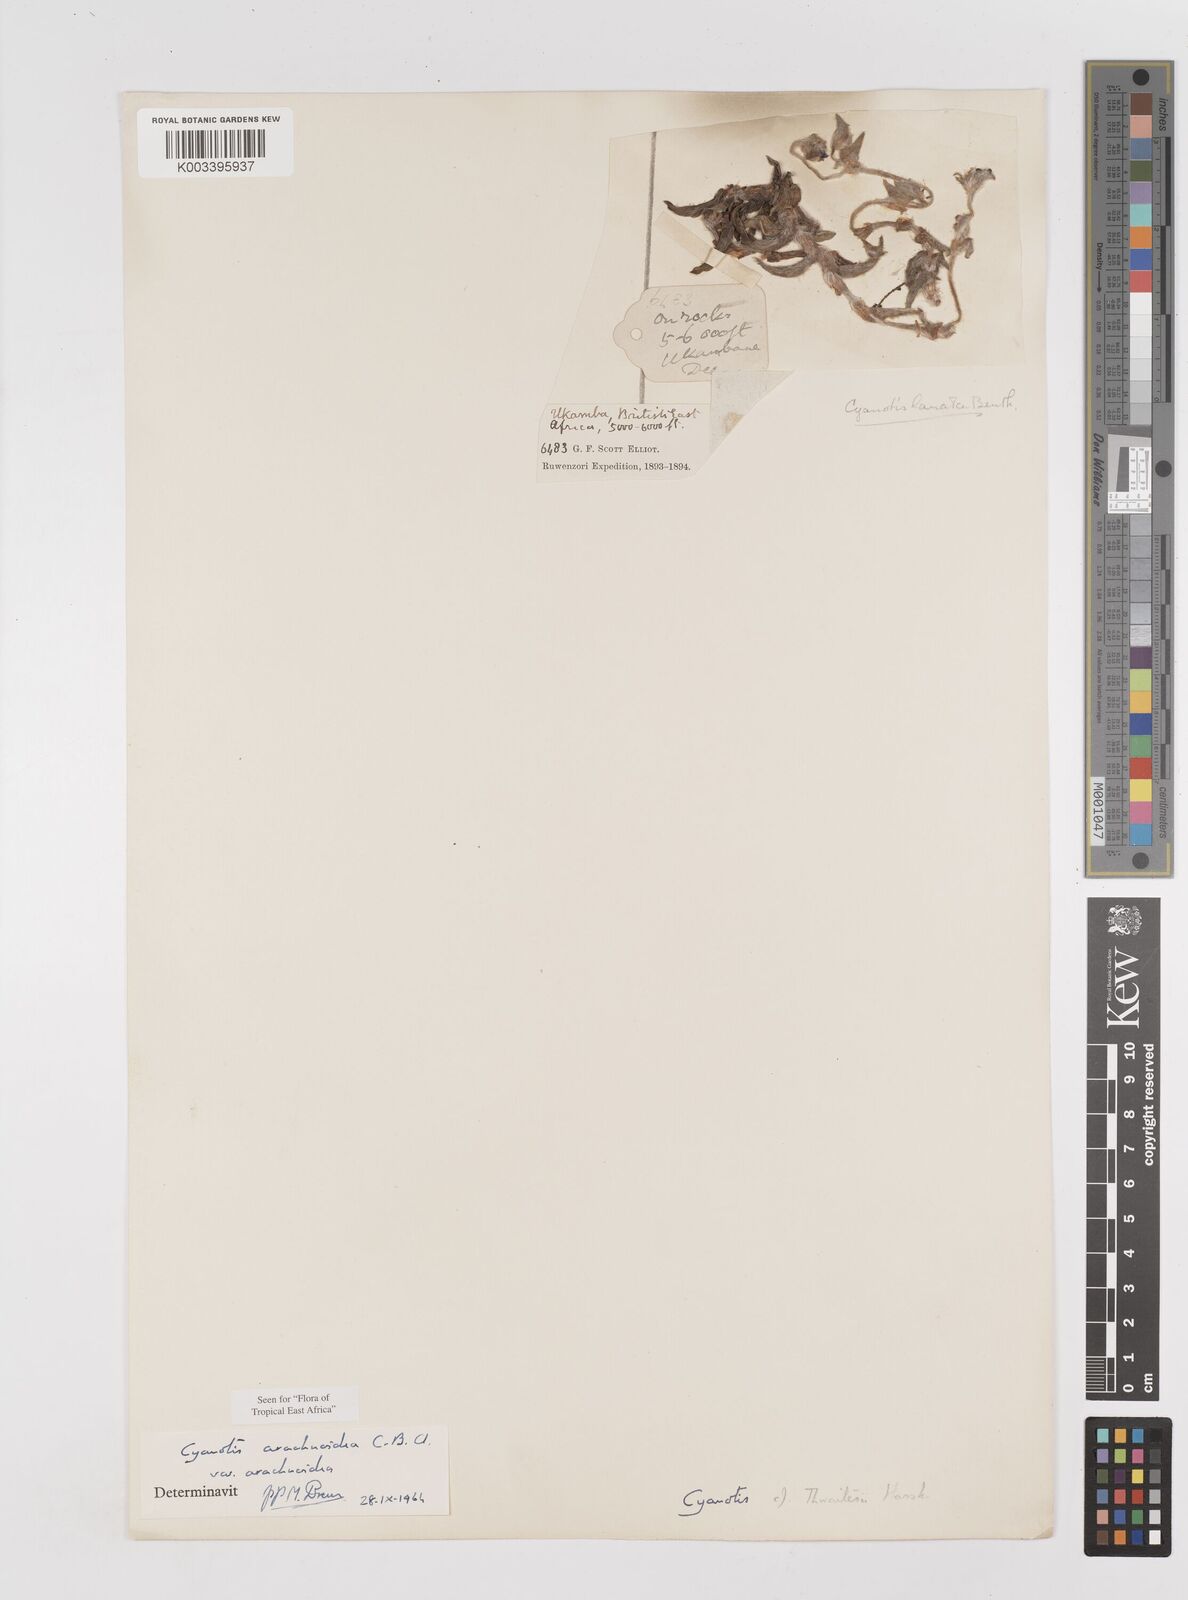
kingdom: Plantae
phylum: Tracheophyta
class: Liliopsida
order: Commelinales
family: Commelinaceae
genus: Cyanotis
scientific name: Cyanotis arachnoidea
